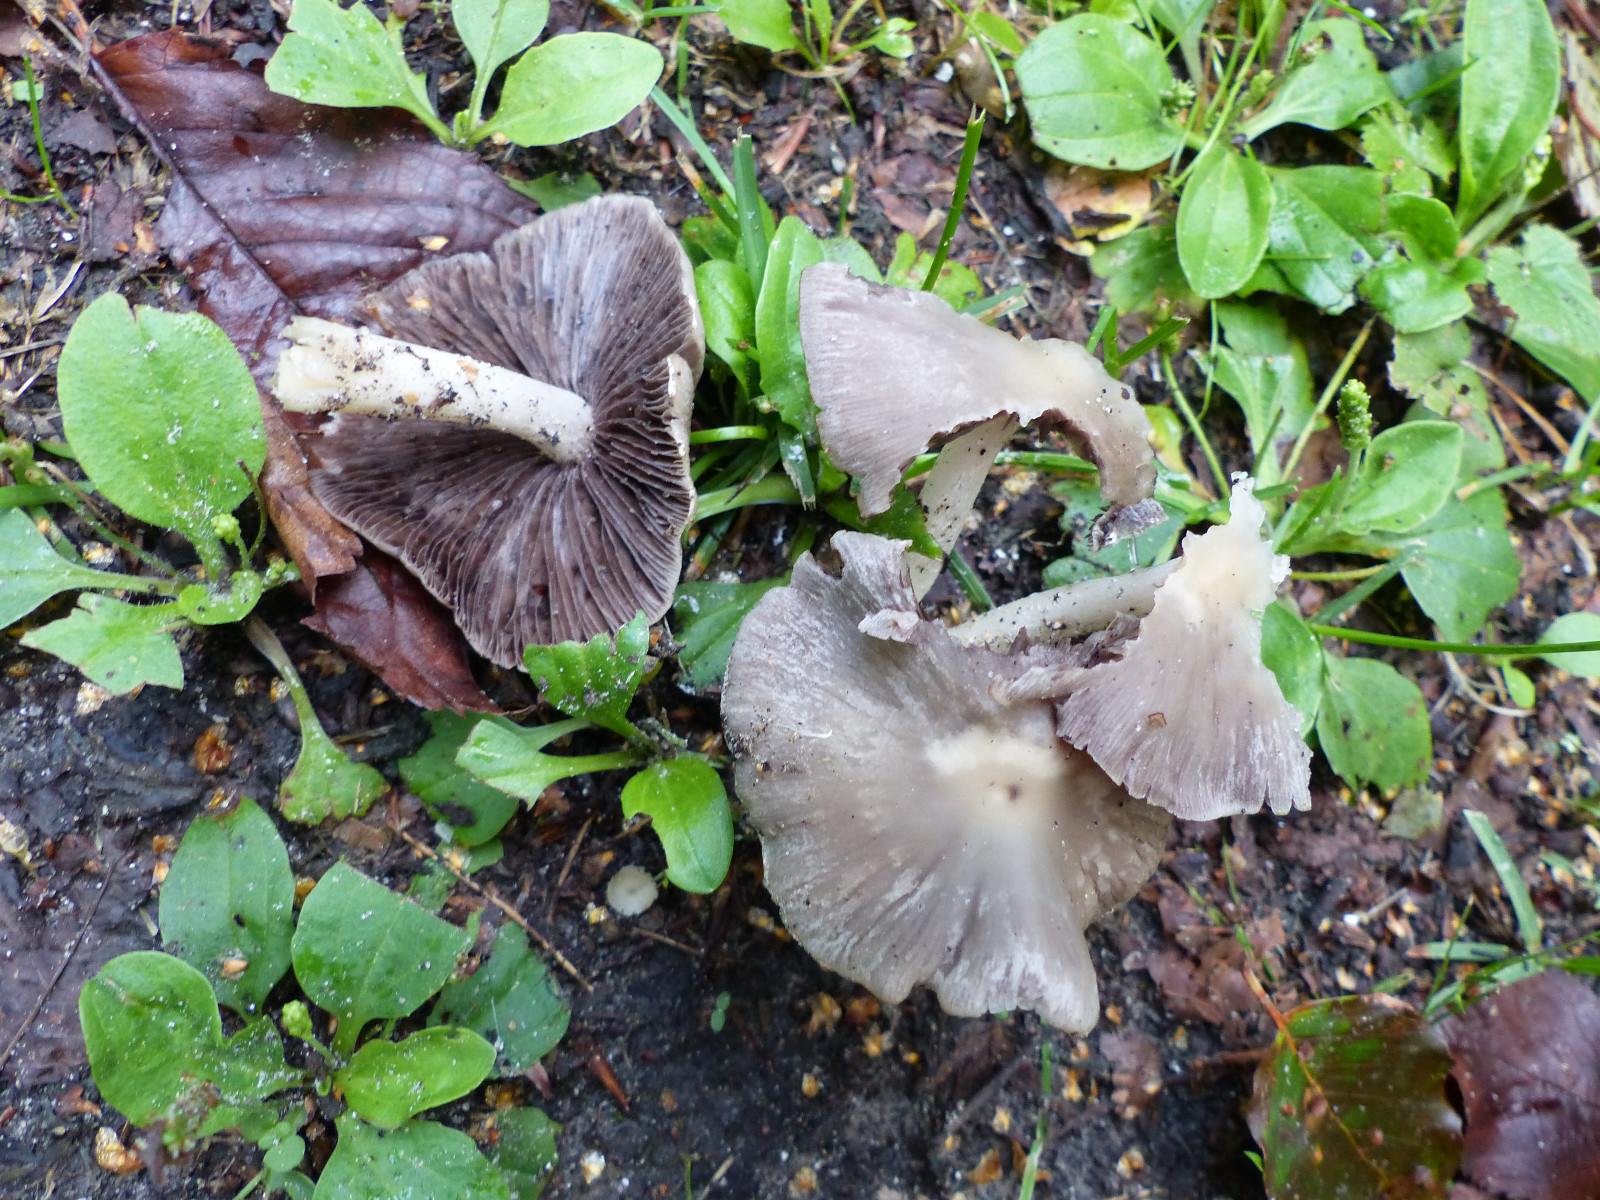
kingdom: Fungi
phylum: Basidiomycota
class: Agaricomycetes
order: Agaricales
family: Psathyrellaceae
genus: Candolleomyces
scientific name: Candolleomyces candolleanus
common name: Candolles mørkhat
